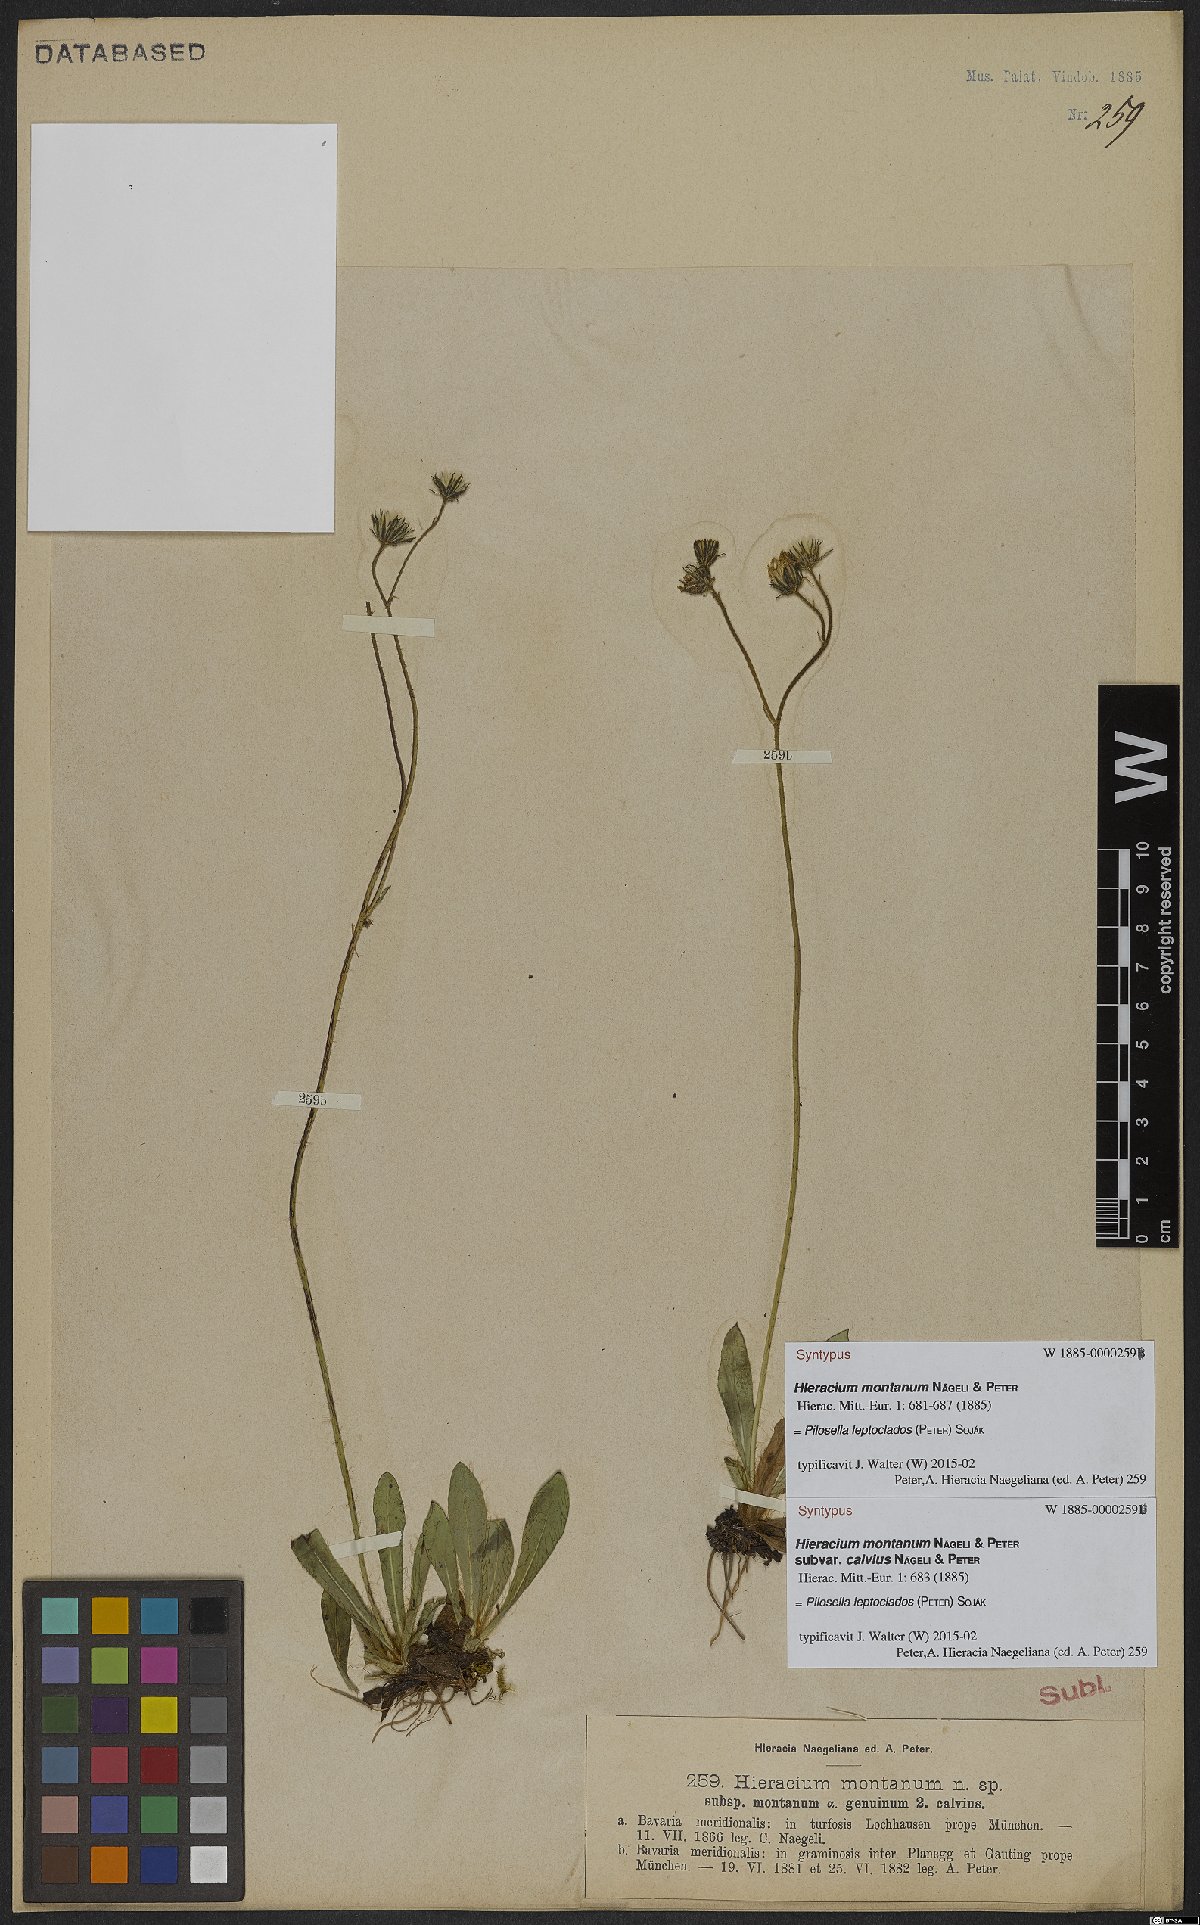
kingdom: Plantae
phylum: Tracheophyta
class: Magnoliopsida
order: Asterales
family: Asteraceae
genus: Pilosella
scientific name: Pilosella leptoclados
